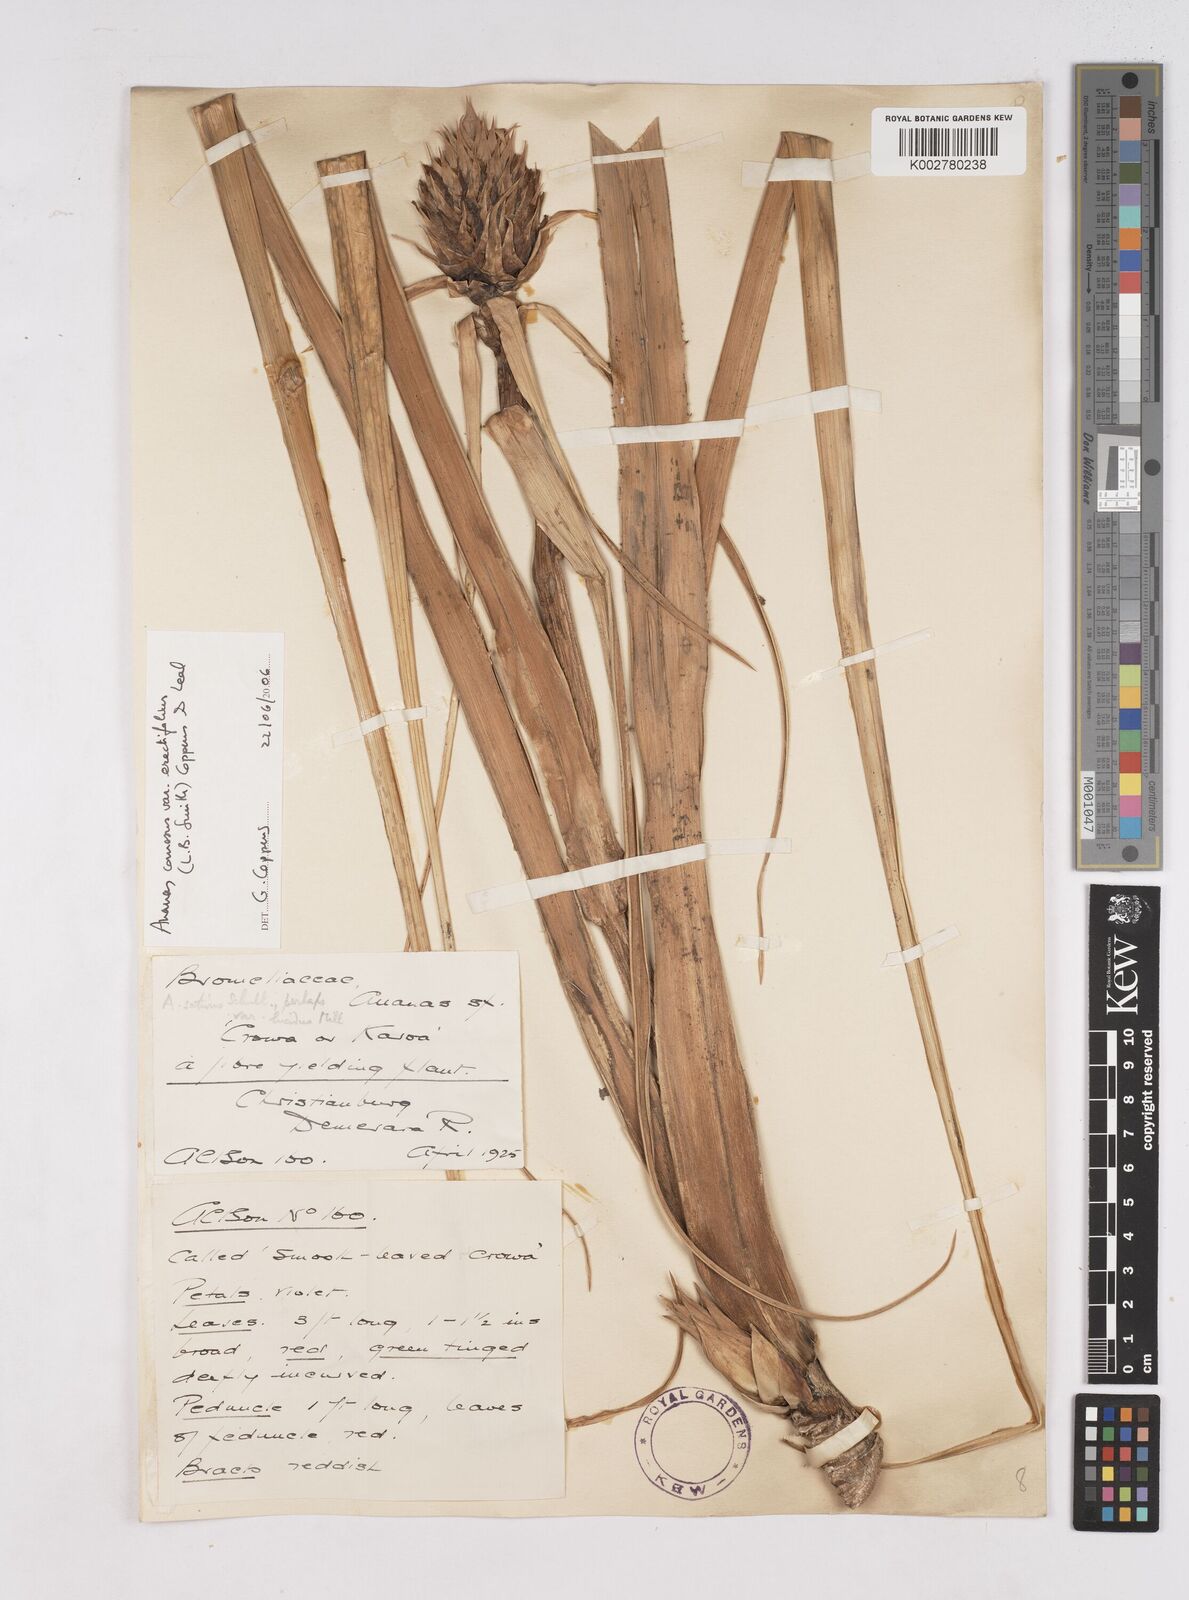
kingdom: Plantae
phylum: Tracheophyta
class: Liliopsida
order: Poales
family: Bromeliaceae
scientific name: Bromeliaceae
